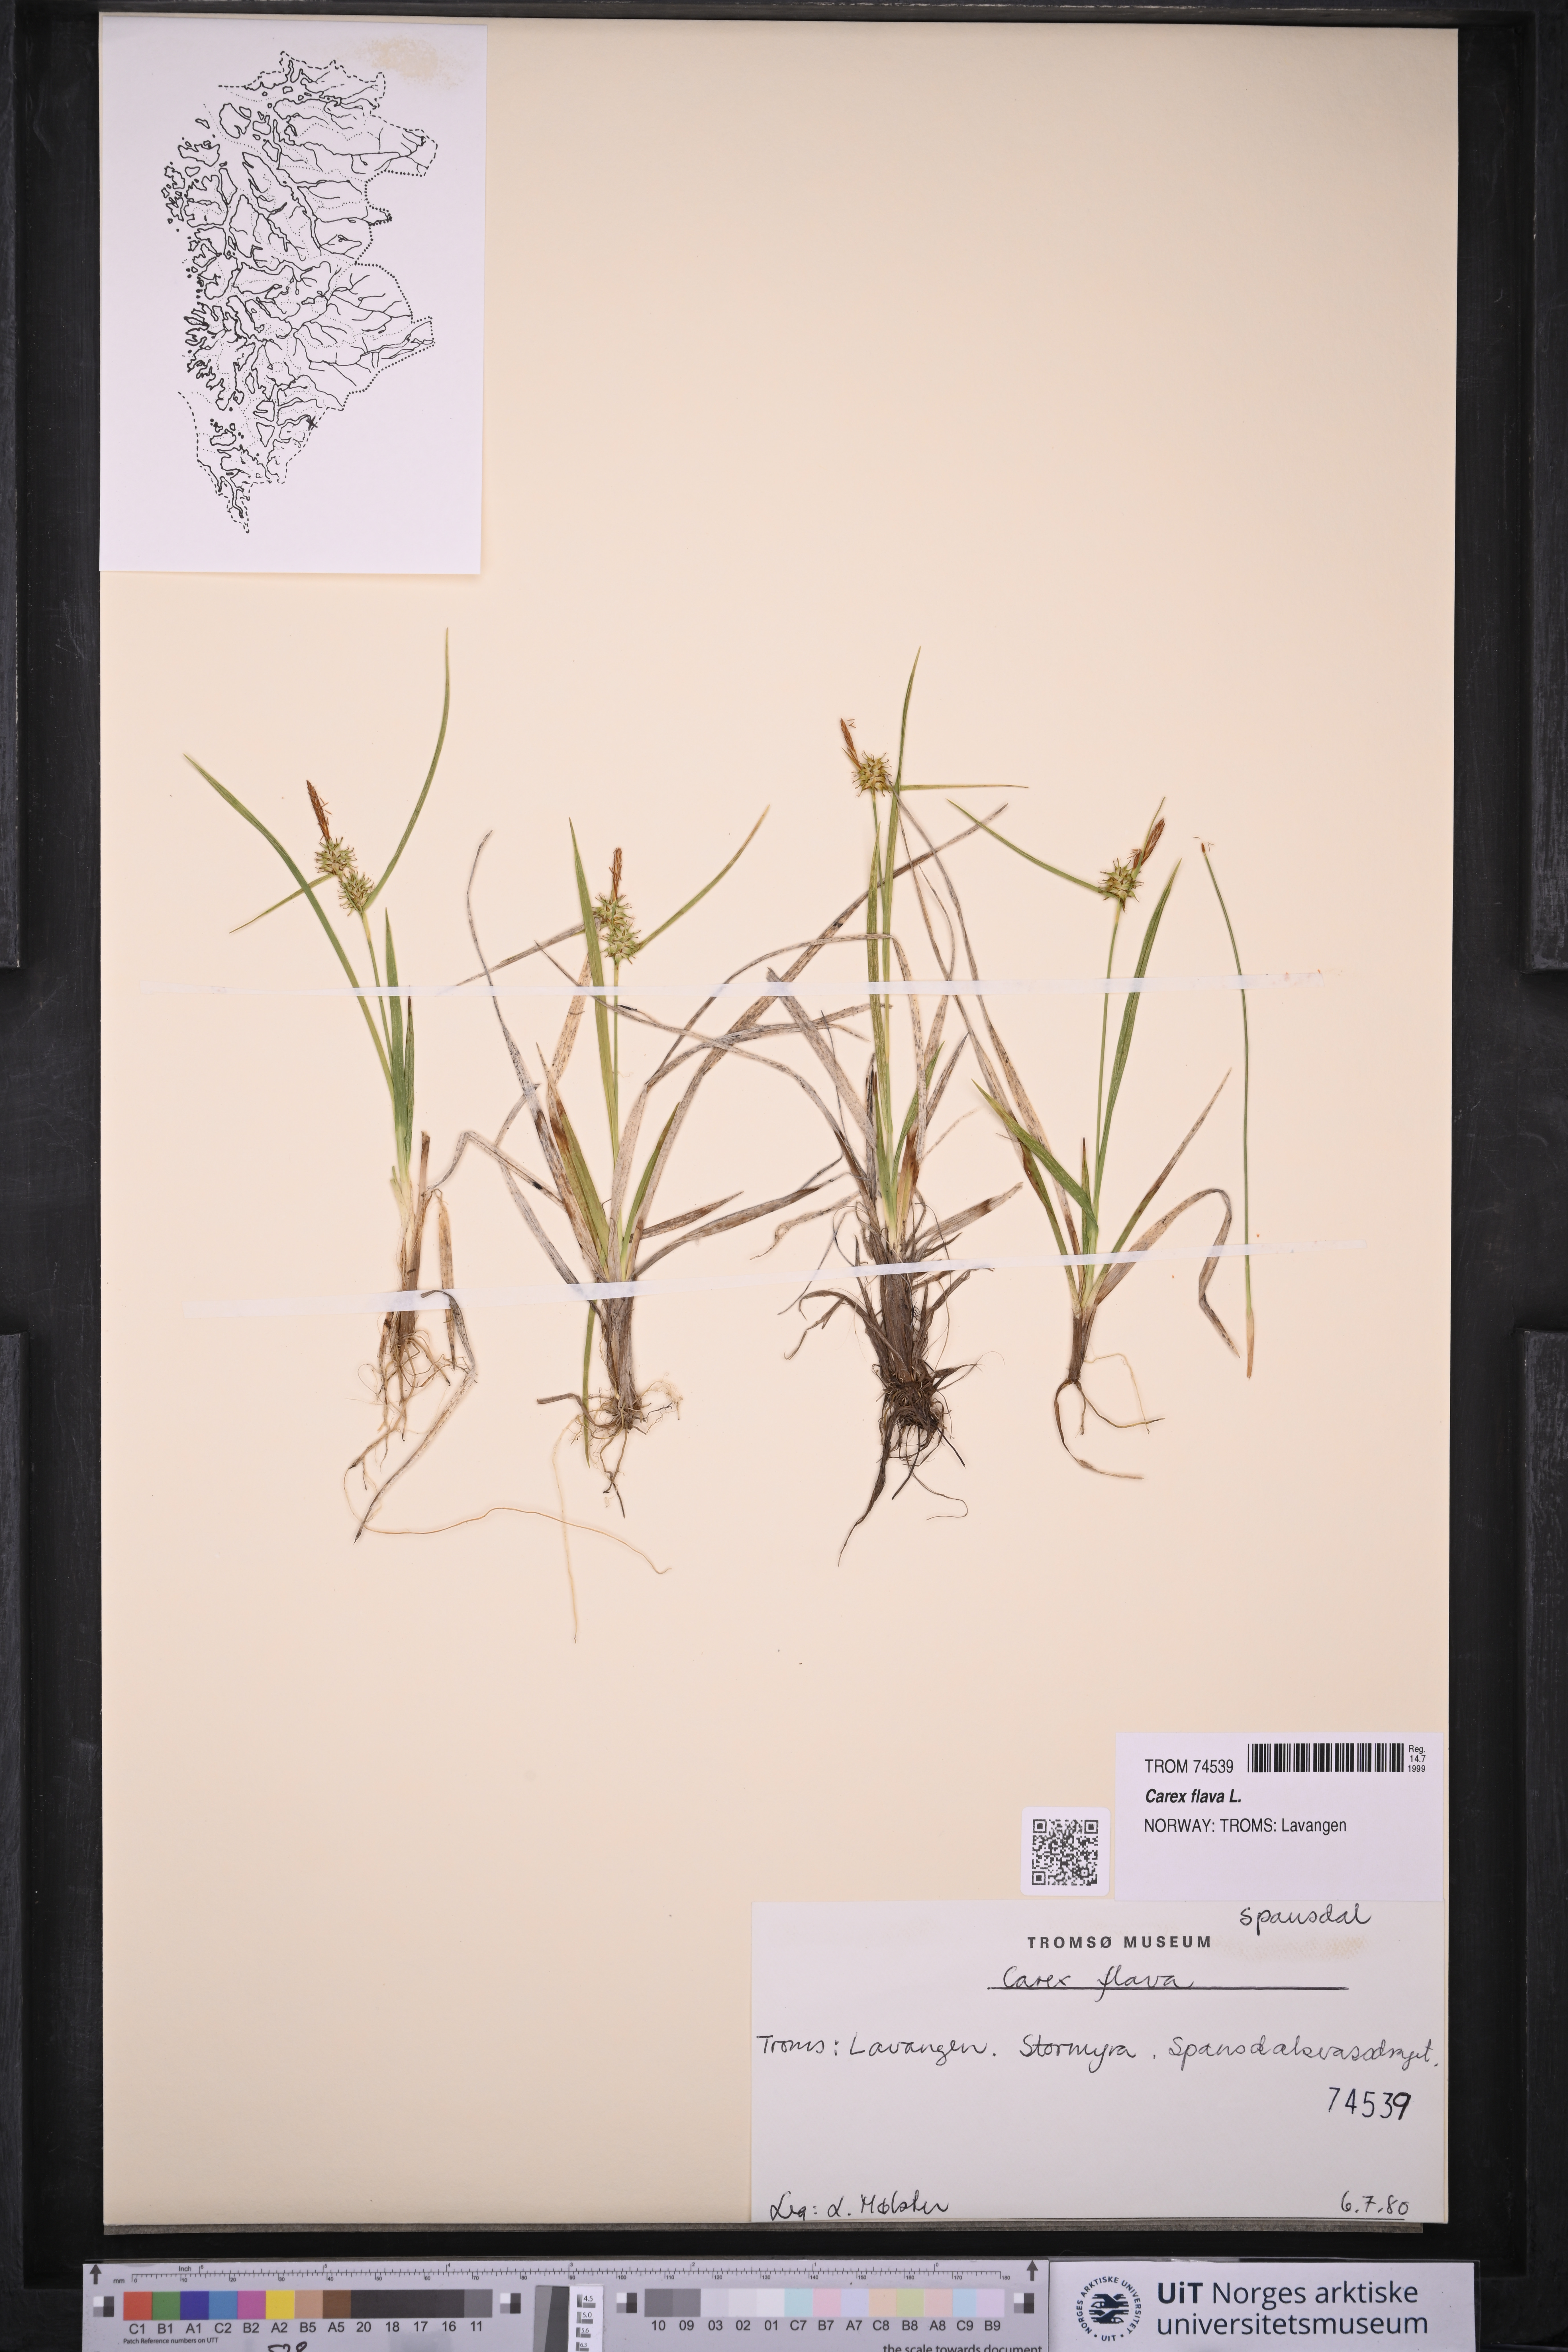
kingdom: Plantae
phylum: Tracheophyta
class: Liliopsida
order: Poales
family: Cyperaceae
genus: Carex
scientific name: Carex flava
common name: Large yellow-sedge
